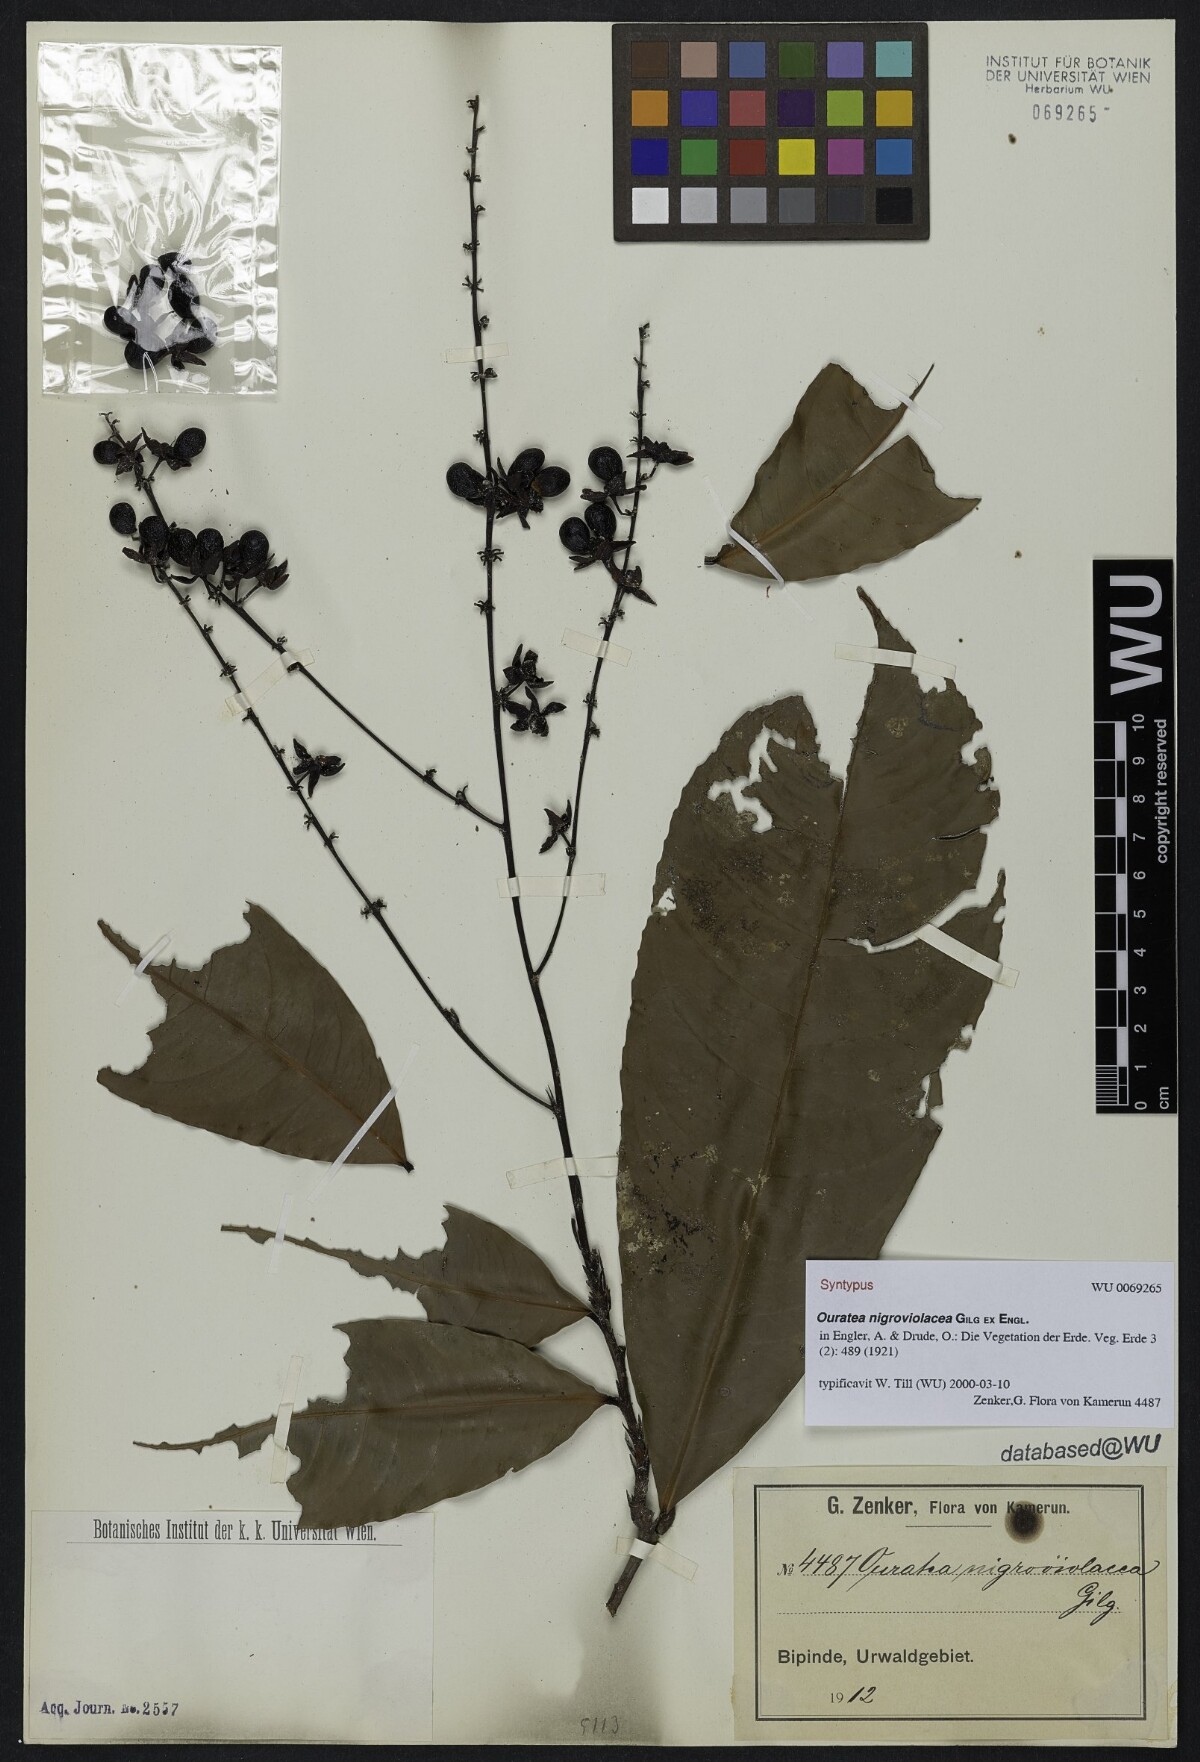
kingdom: Plantae
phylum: Tracheophyta
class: Magnoliopsida
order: Malpighiales
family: Ochnaceae
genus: Ouratea
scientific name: Ouratea nigroviolacea
